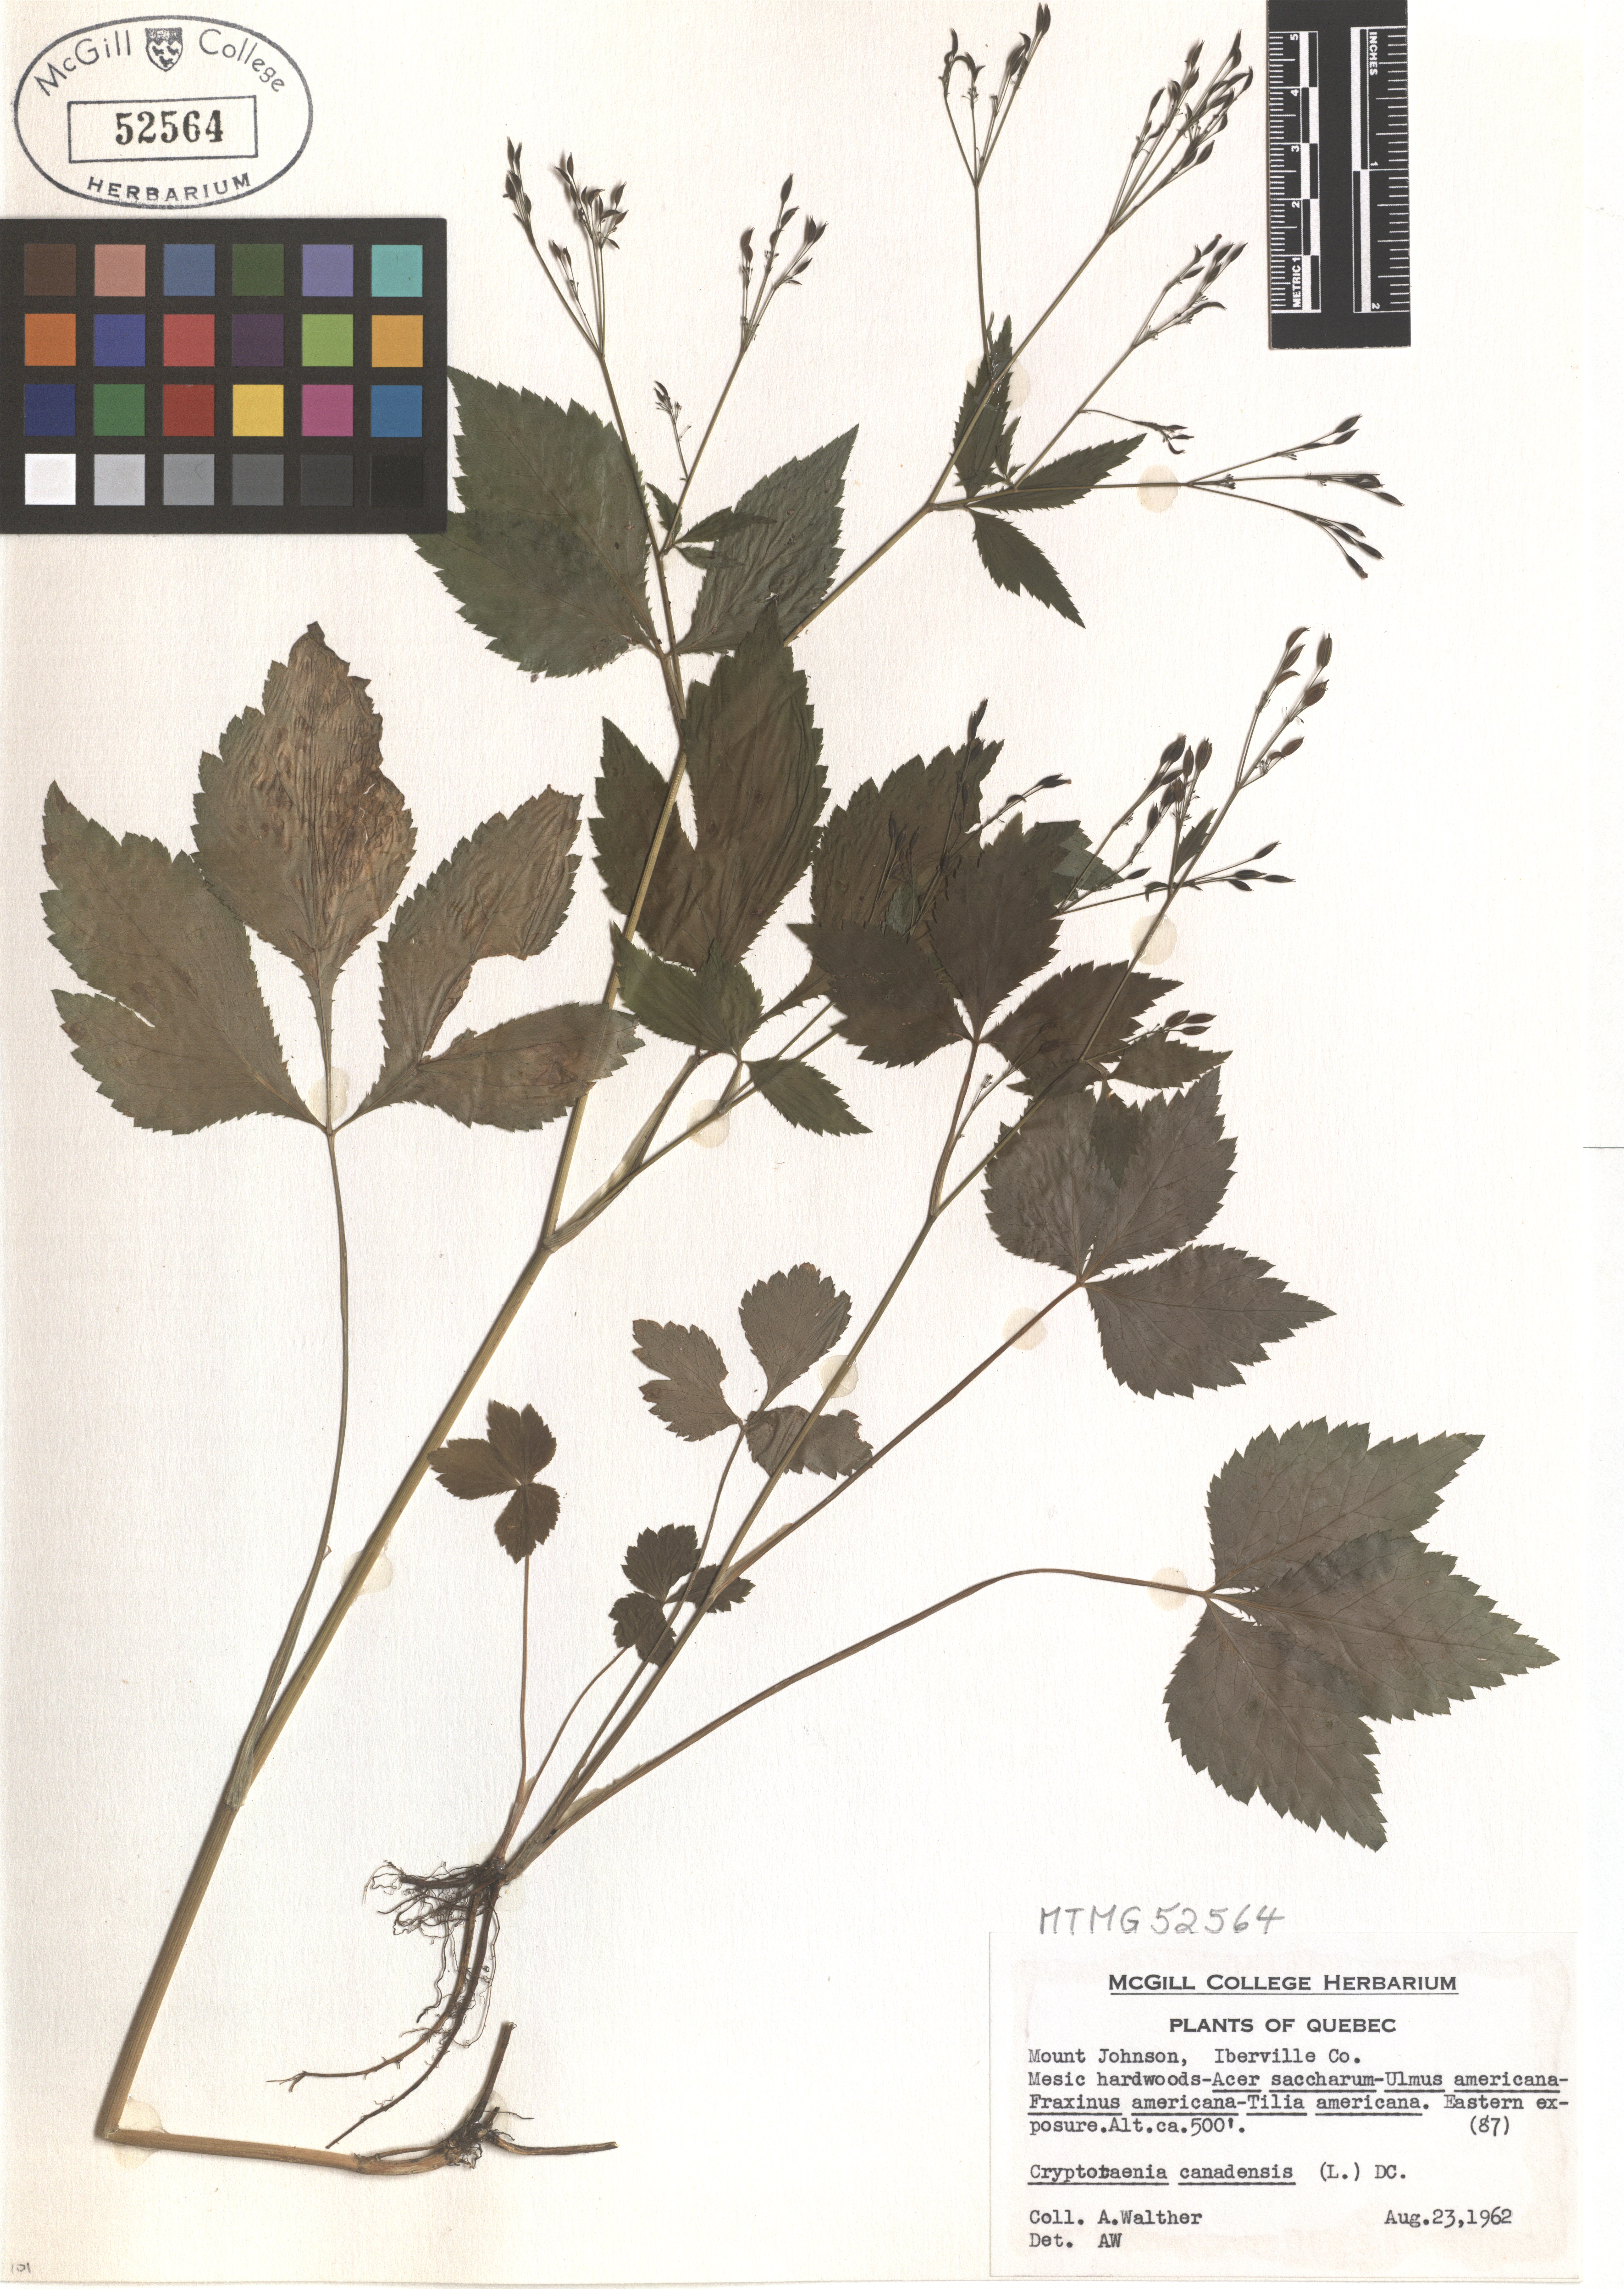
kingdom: Plantae
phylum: Tracheophyta
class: Magnoliopsida
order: Apiales
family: Apiaceae
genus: Cryptotaenia
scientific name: Cryptotaenia canadensis
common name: Honewort
